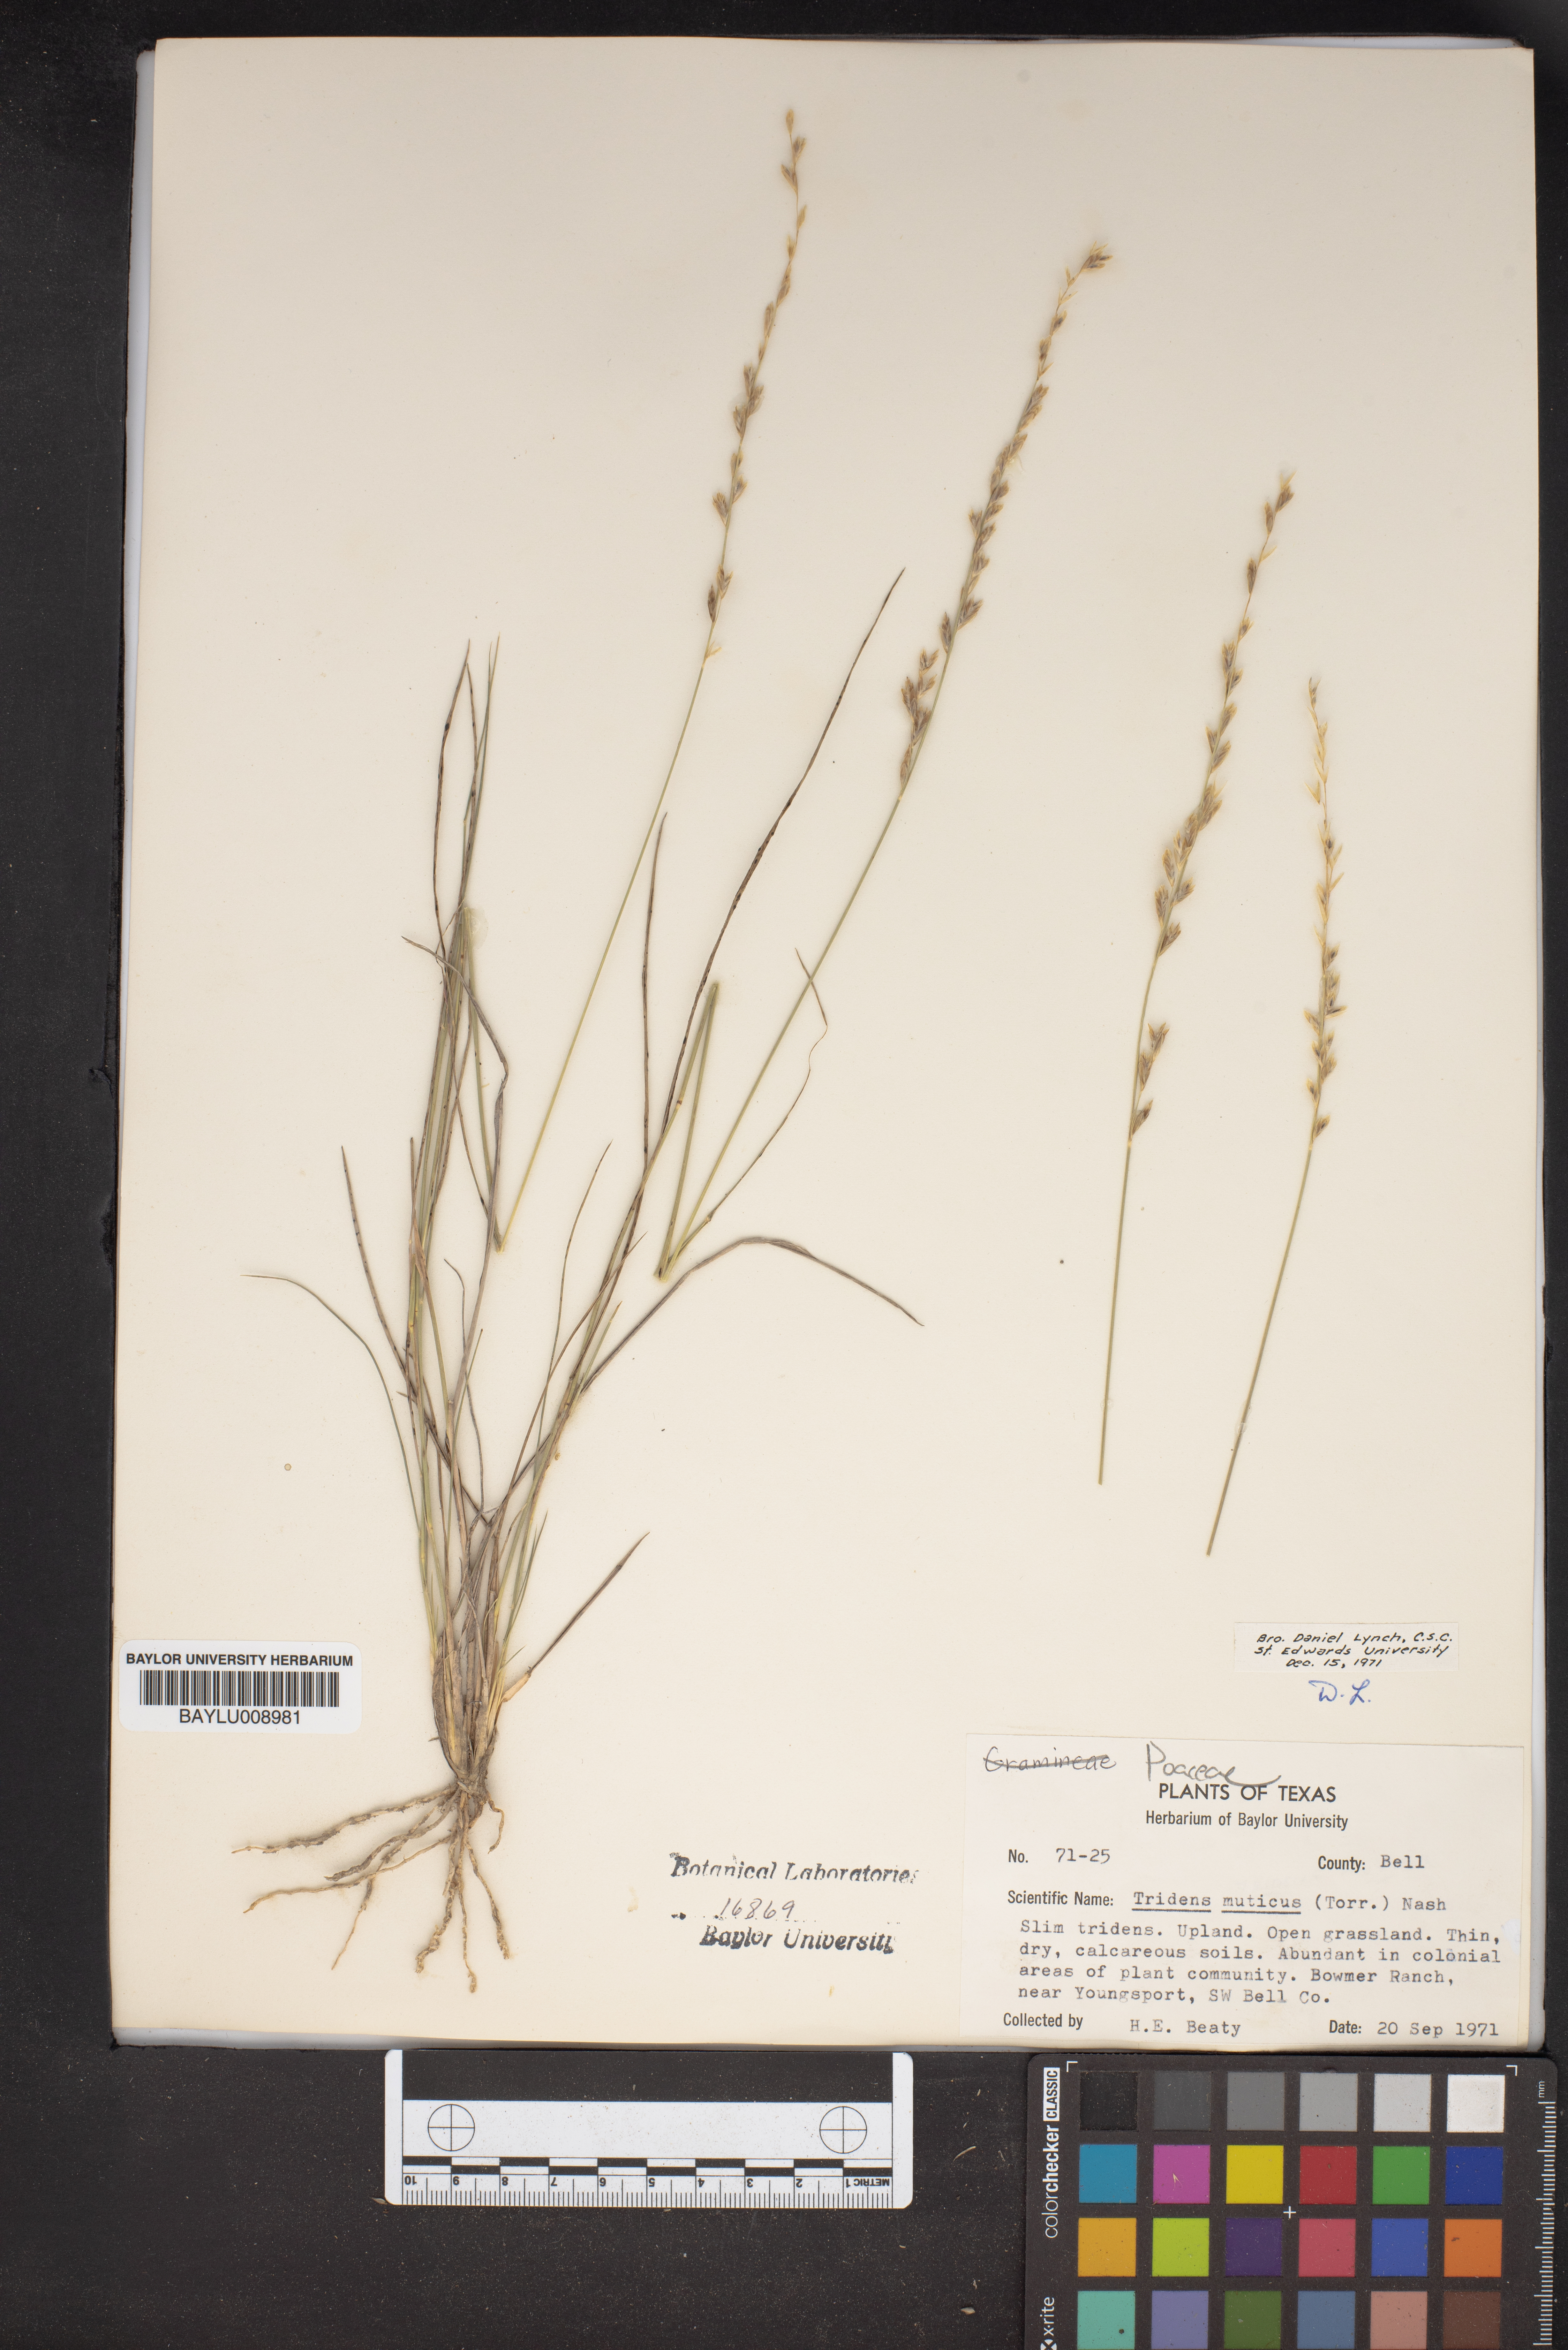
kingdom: Plantae
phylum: Tracheophyta
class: Liliopsida
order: Poales
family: Poaceae
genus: Tridentopsis
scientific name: Tridentopsis mutica
